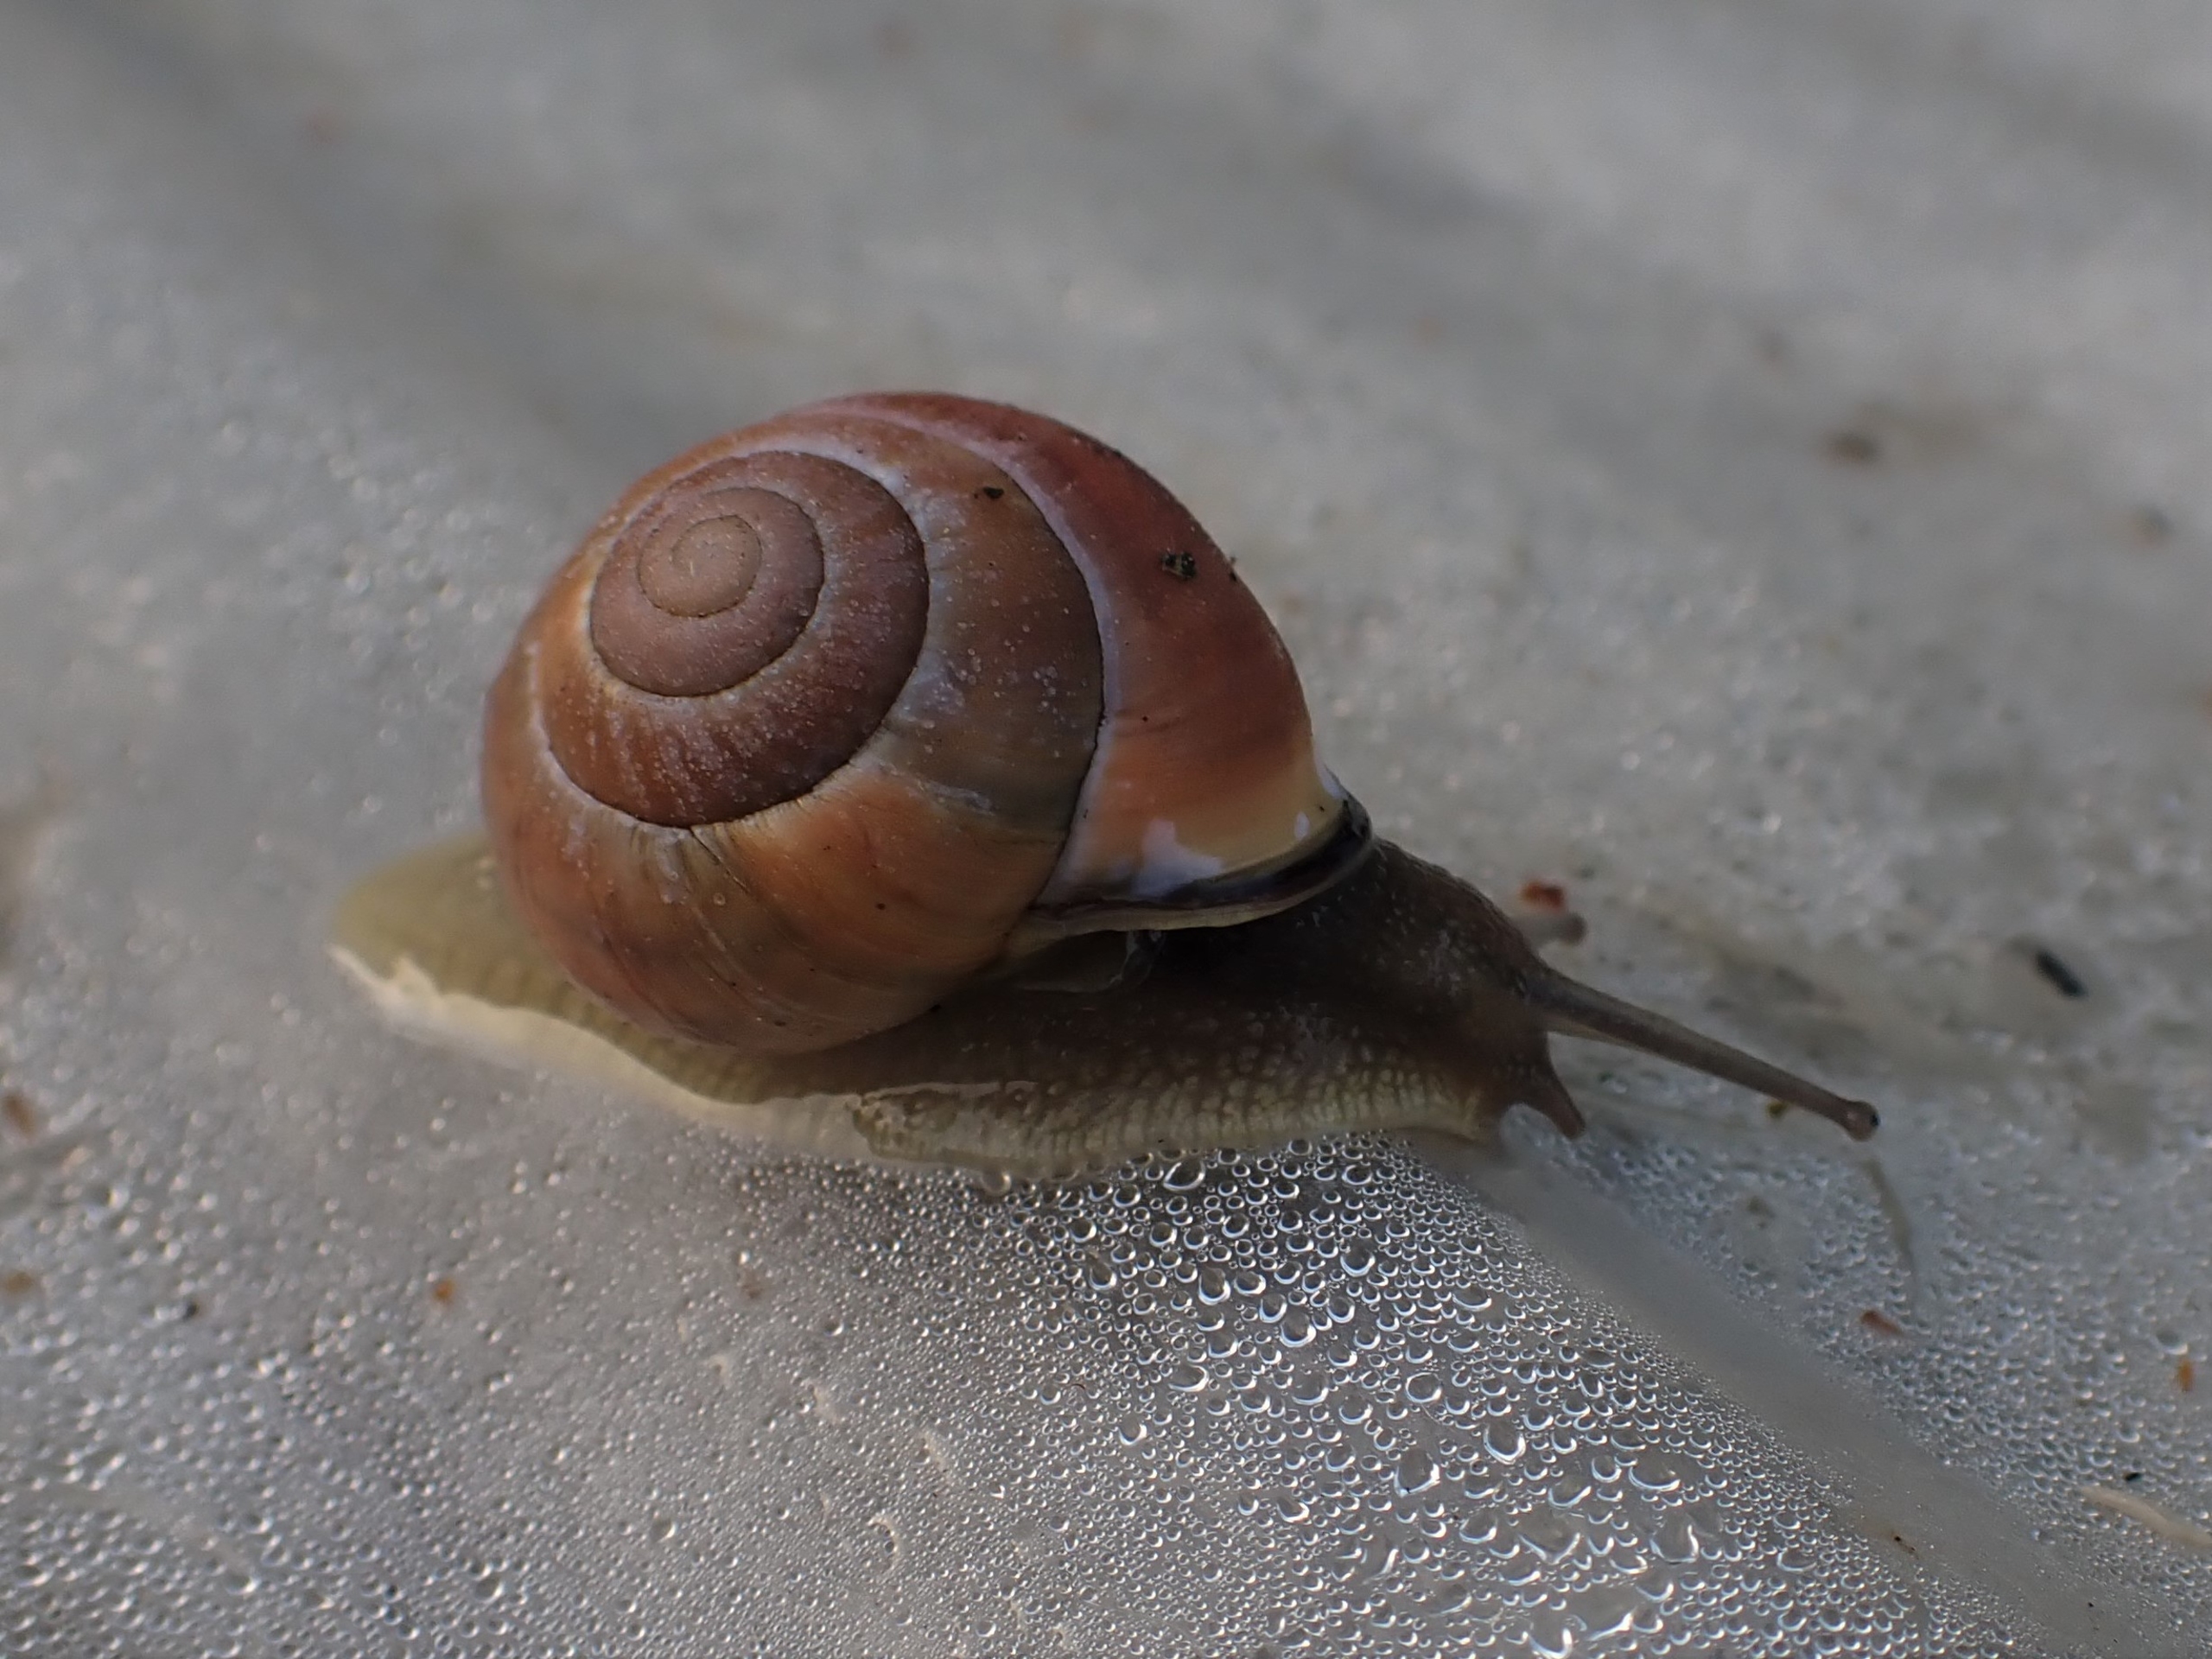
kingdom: Animalia
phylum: Mollusca
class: Gastropoda
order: Stylommatophora
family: Helicidae
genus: Cepaea
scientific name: Cepaea nemoralis
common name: Lundsnegl
